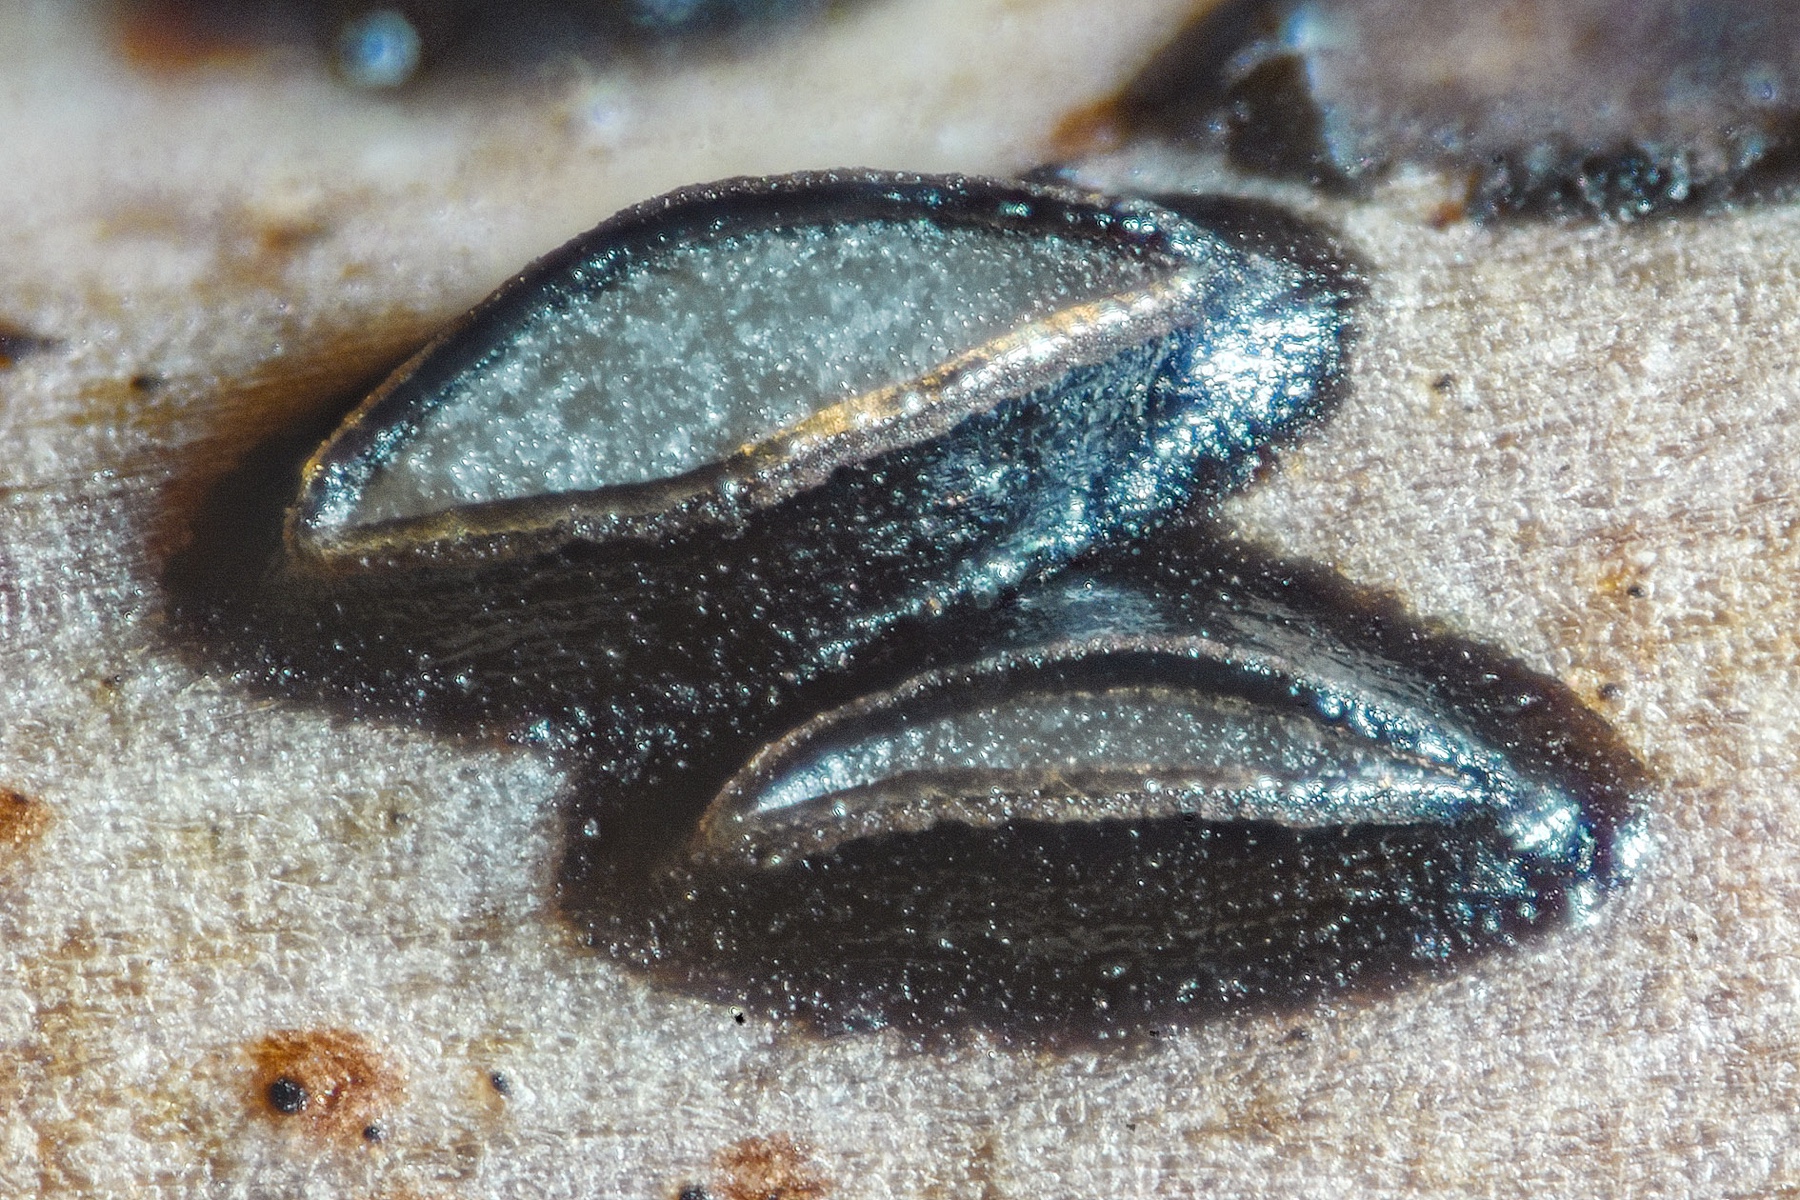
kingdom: Fungi
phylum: Ascomycota
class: Leotiomycetes
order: Rhytismatales
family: Rhytismataceae
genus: Hypoderma
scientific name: Hypoderma rubi
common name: brombær-fureplet
